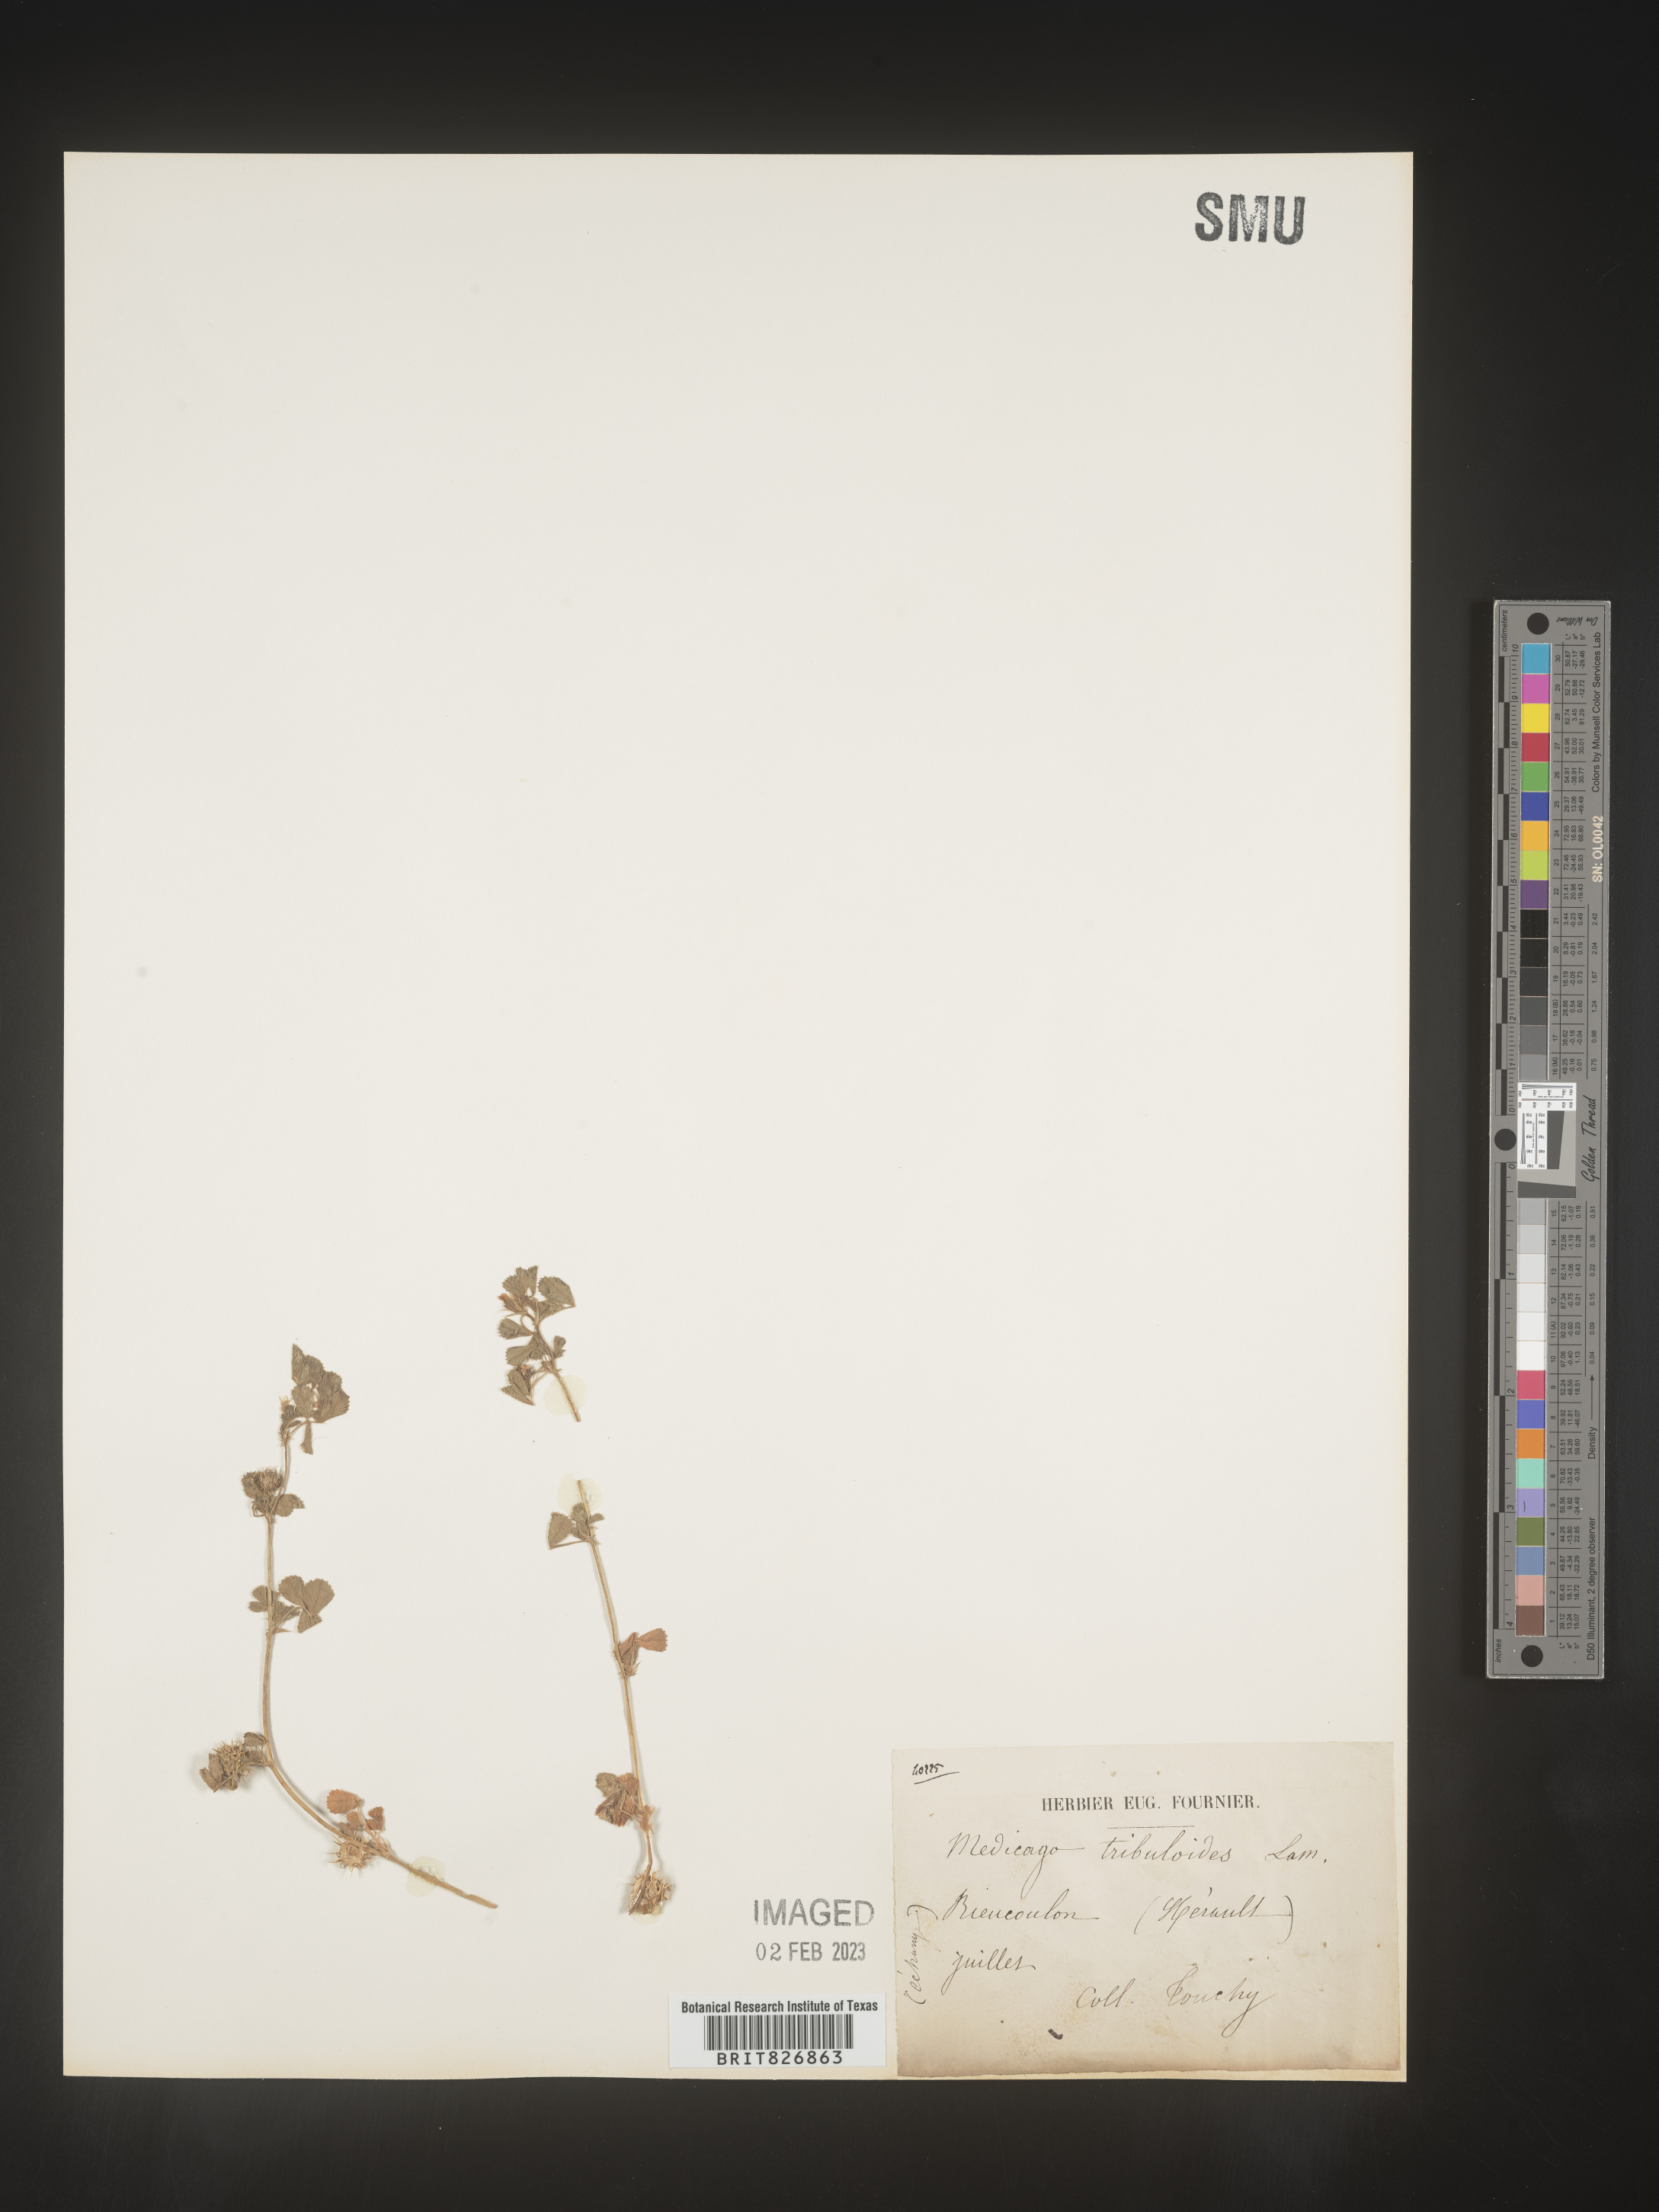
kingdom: Plantae
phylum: Tracheophyta
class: Magnoliopsida
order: Fabales
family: Fabaceae
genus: Medicago
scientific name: Medicago
